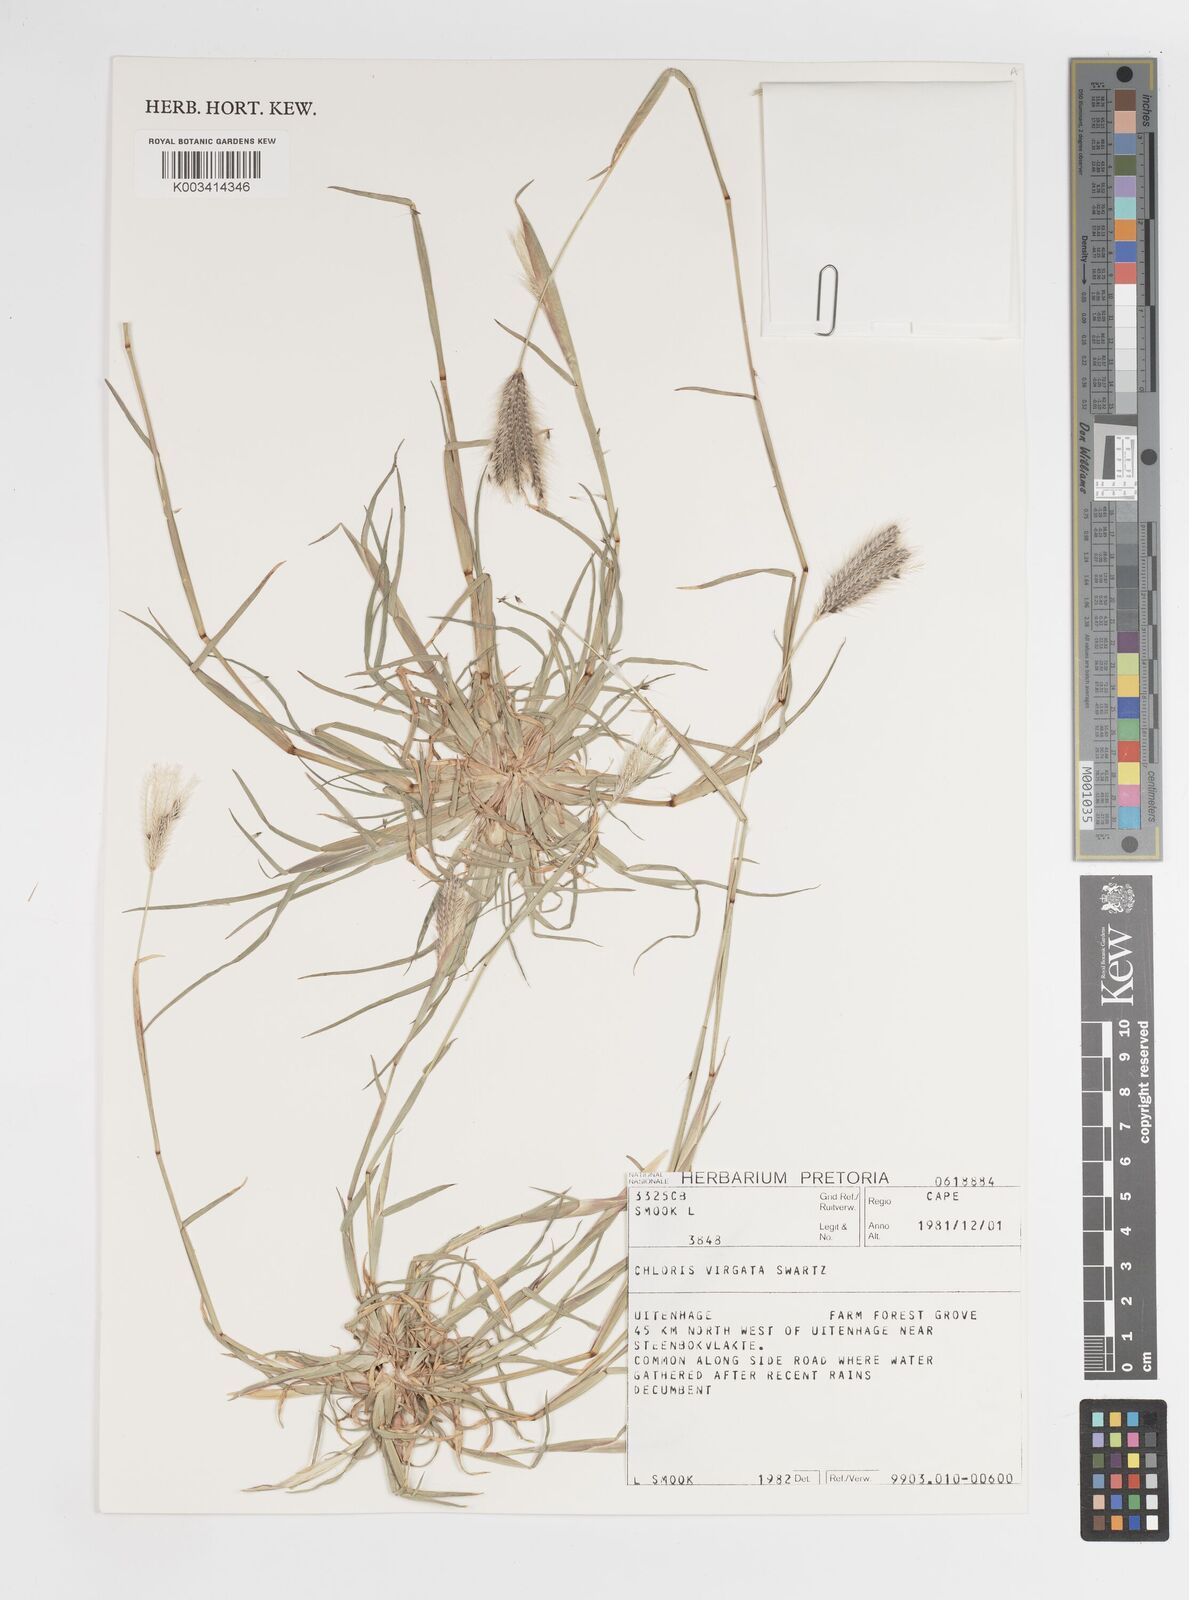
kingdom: Plantae
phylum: Tracheophyta
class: Liliopsida
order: Poales
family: Poaceae
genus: Chloris
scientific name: Chloris virgata
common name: Feathery rhodes-grass
